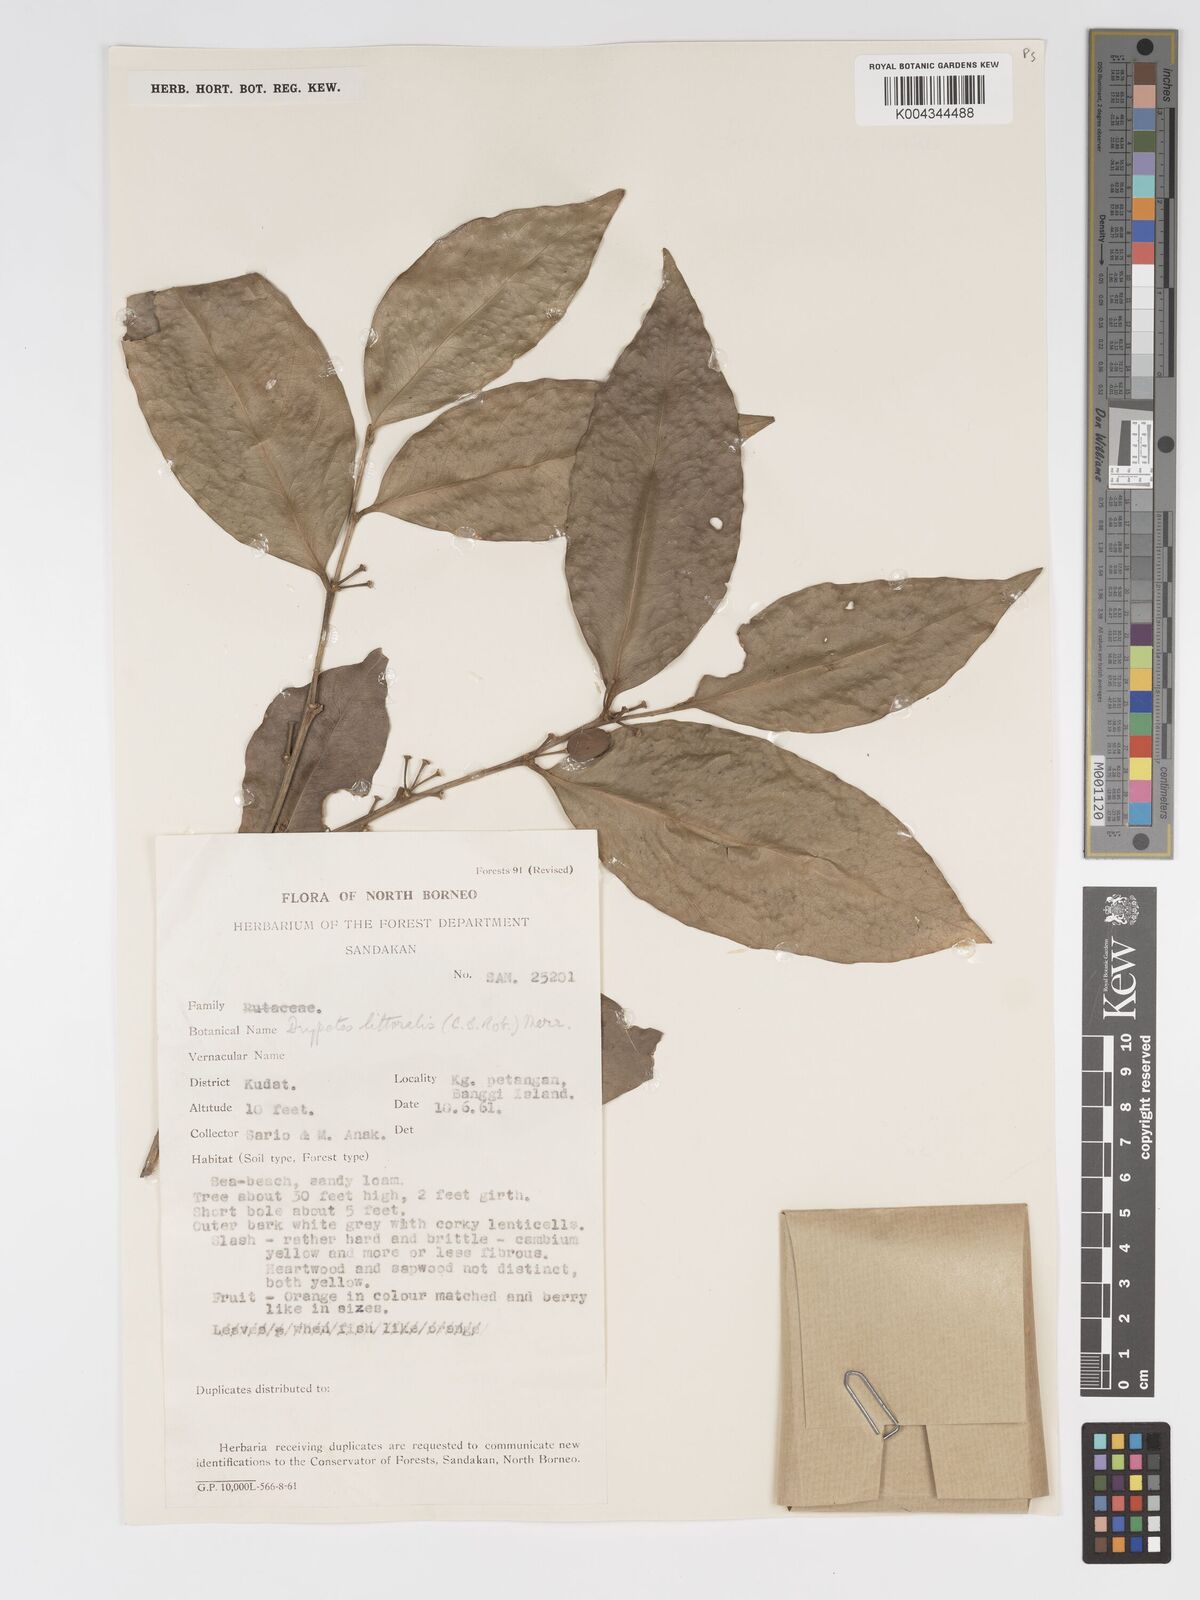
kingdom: Plantae
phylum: Tracheophyta
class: Magnoliopsida
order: Malpighiales
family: Putranjivaceae
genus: Drypetes
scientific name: Drypetes littoralis
